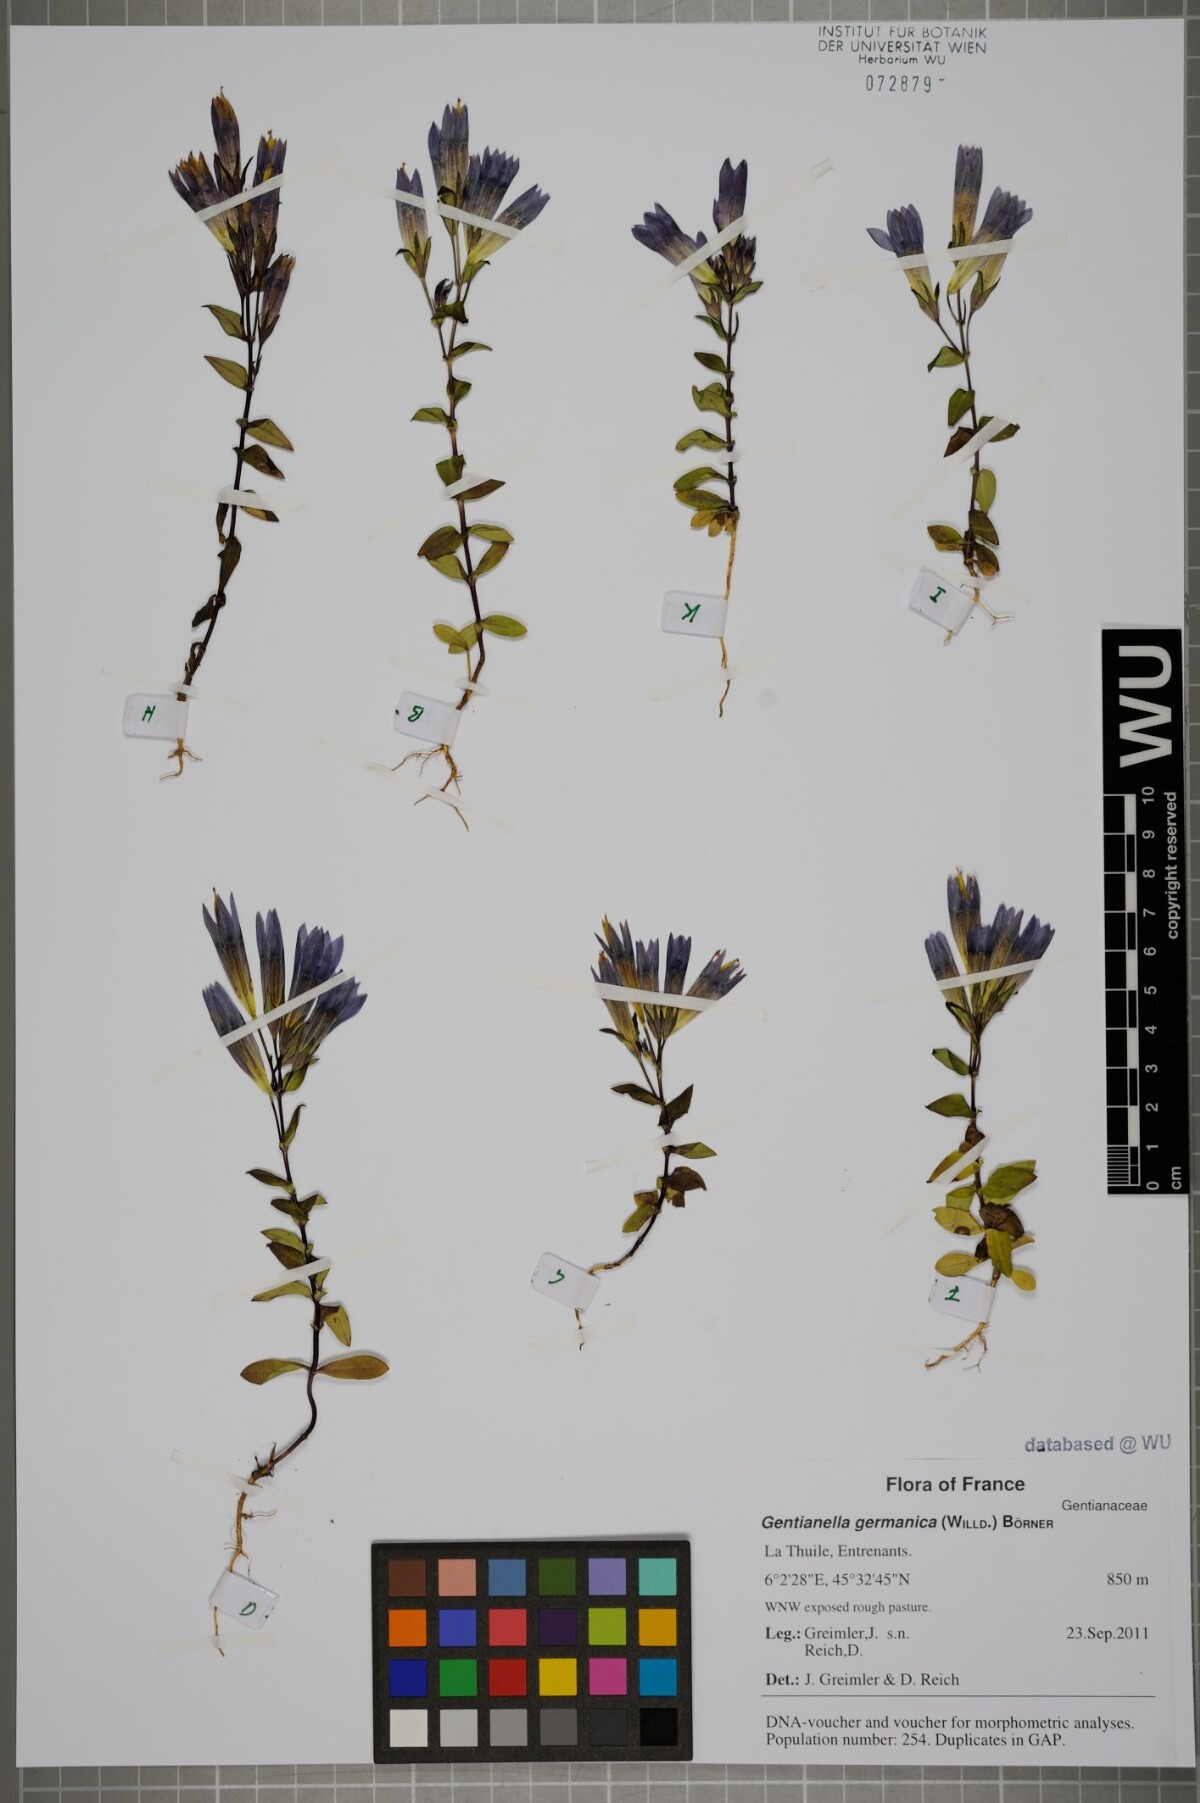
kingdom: Plantae
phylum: Tracheophyta
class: Magnoliopsida
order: Gentianales
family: Gentianaceae
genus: Gentianella
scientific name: Gentianella germanica
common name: Chiltern-gentian
